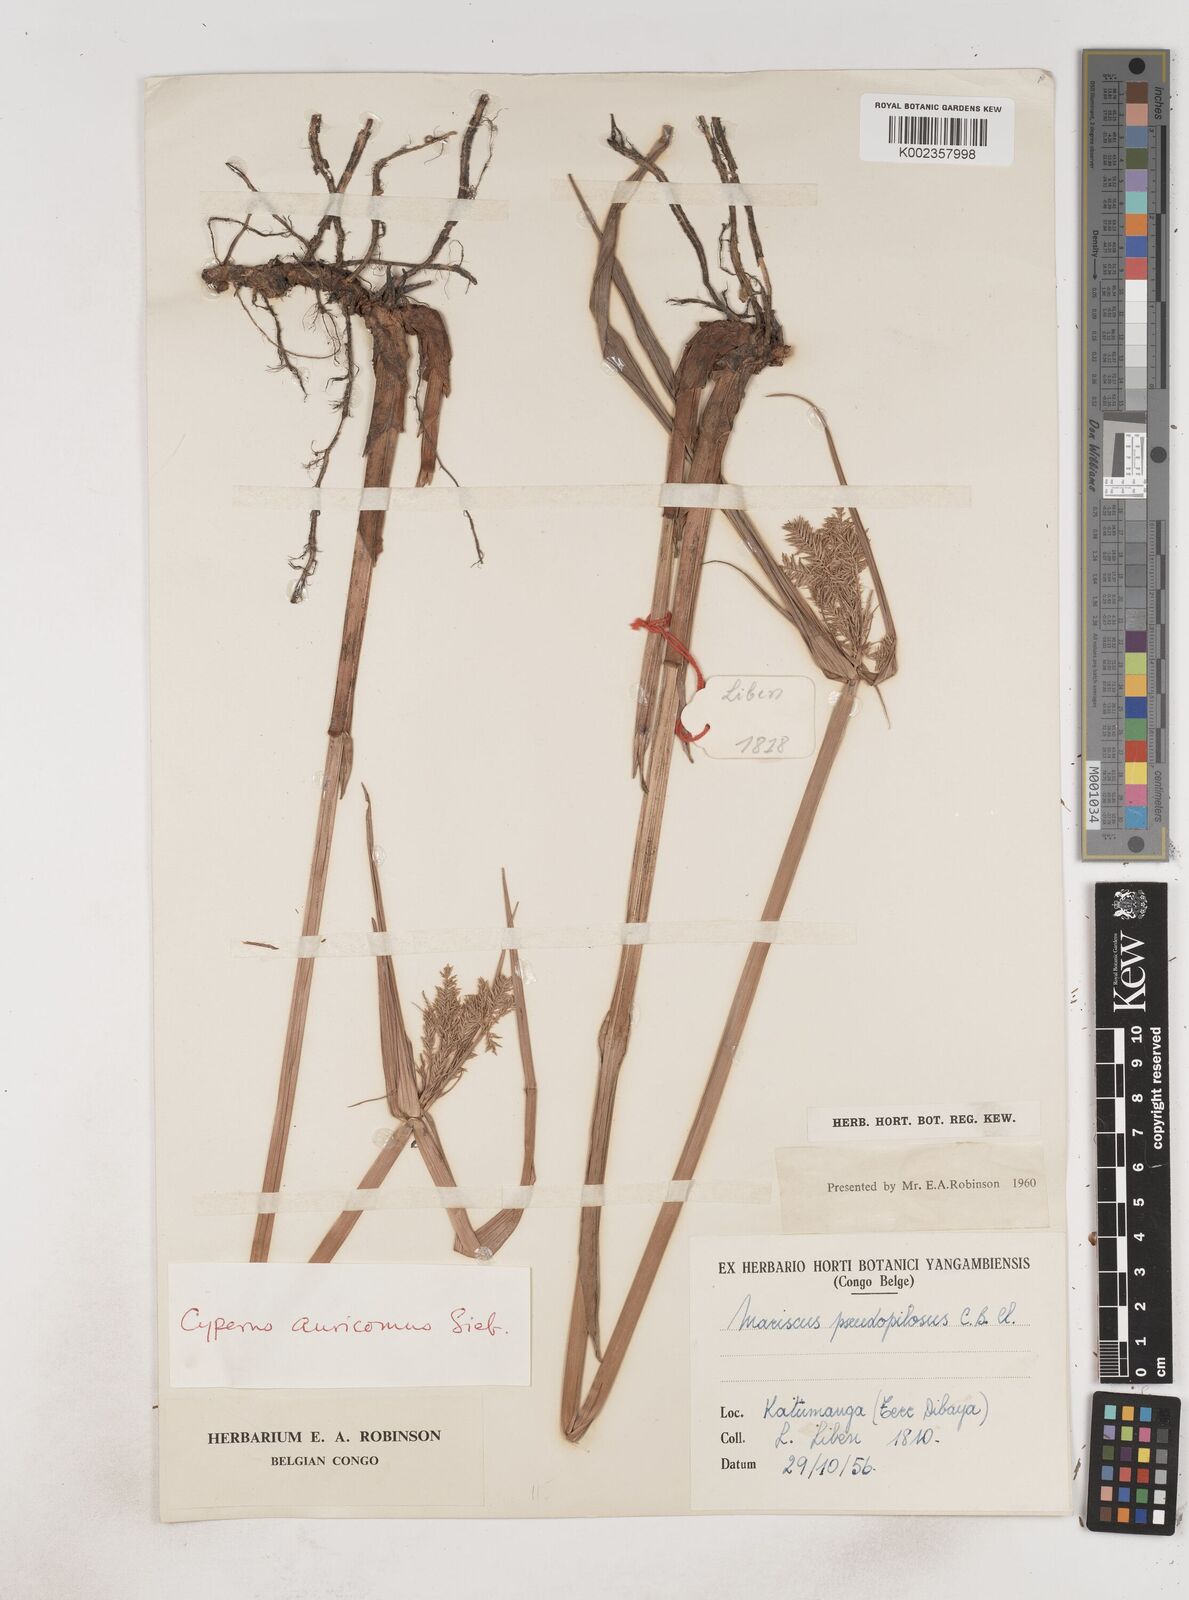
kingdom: Plantae
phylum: Tracheophyta
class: Liliopsida
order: Poales
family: Cyperaceae
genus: Cyperus
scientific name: Cyperus digitatus
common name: Finger flatsedge
